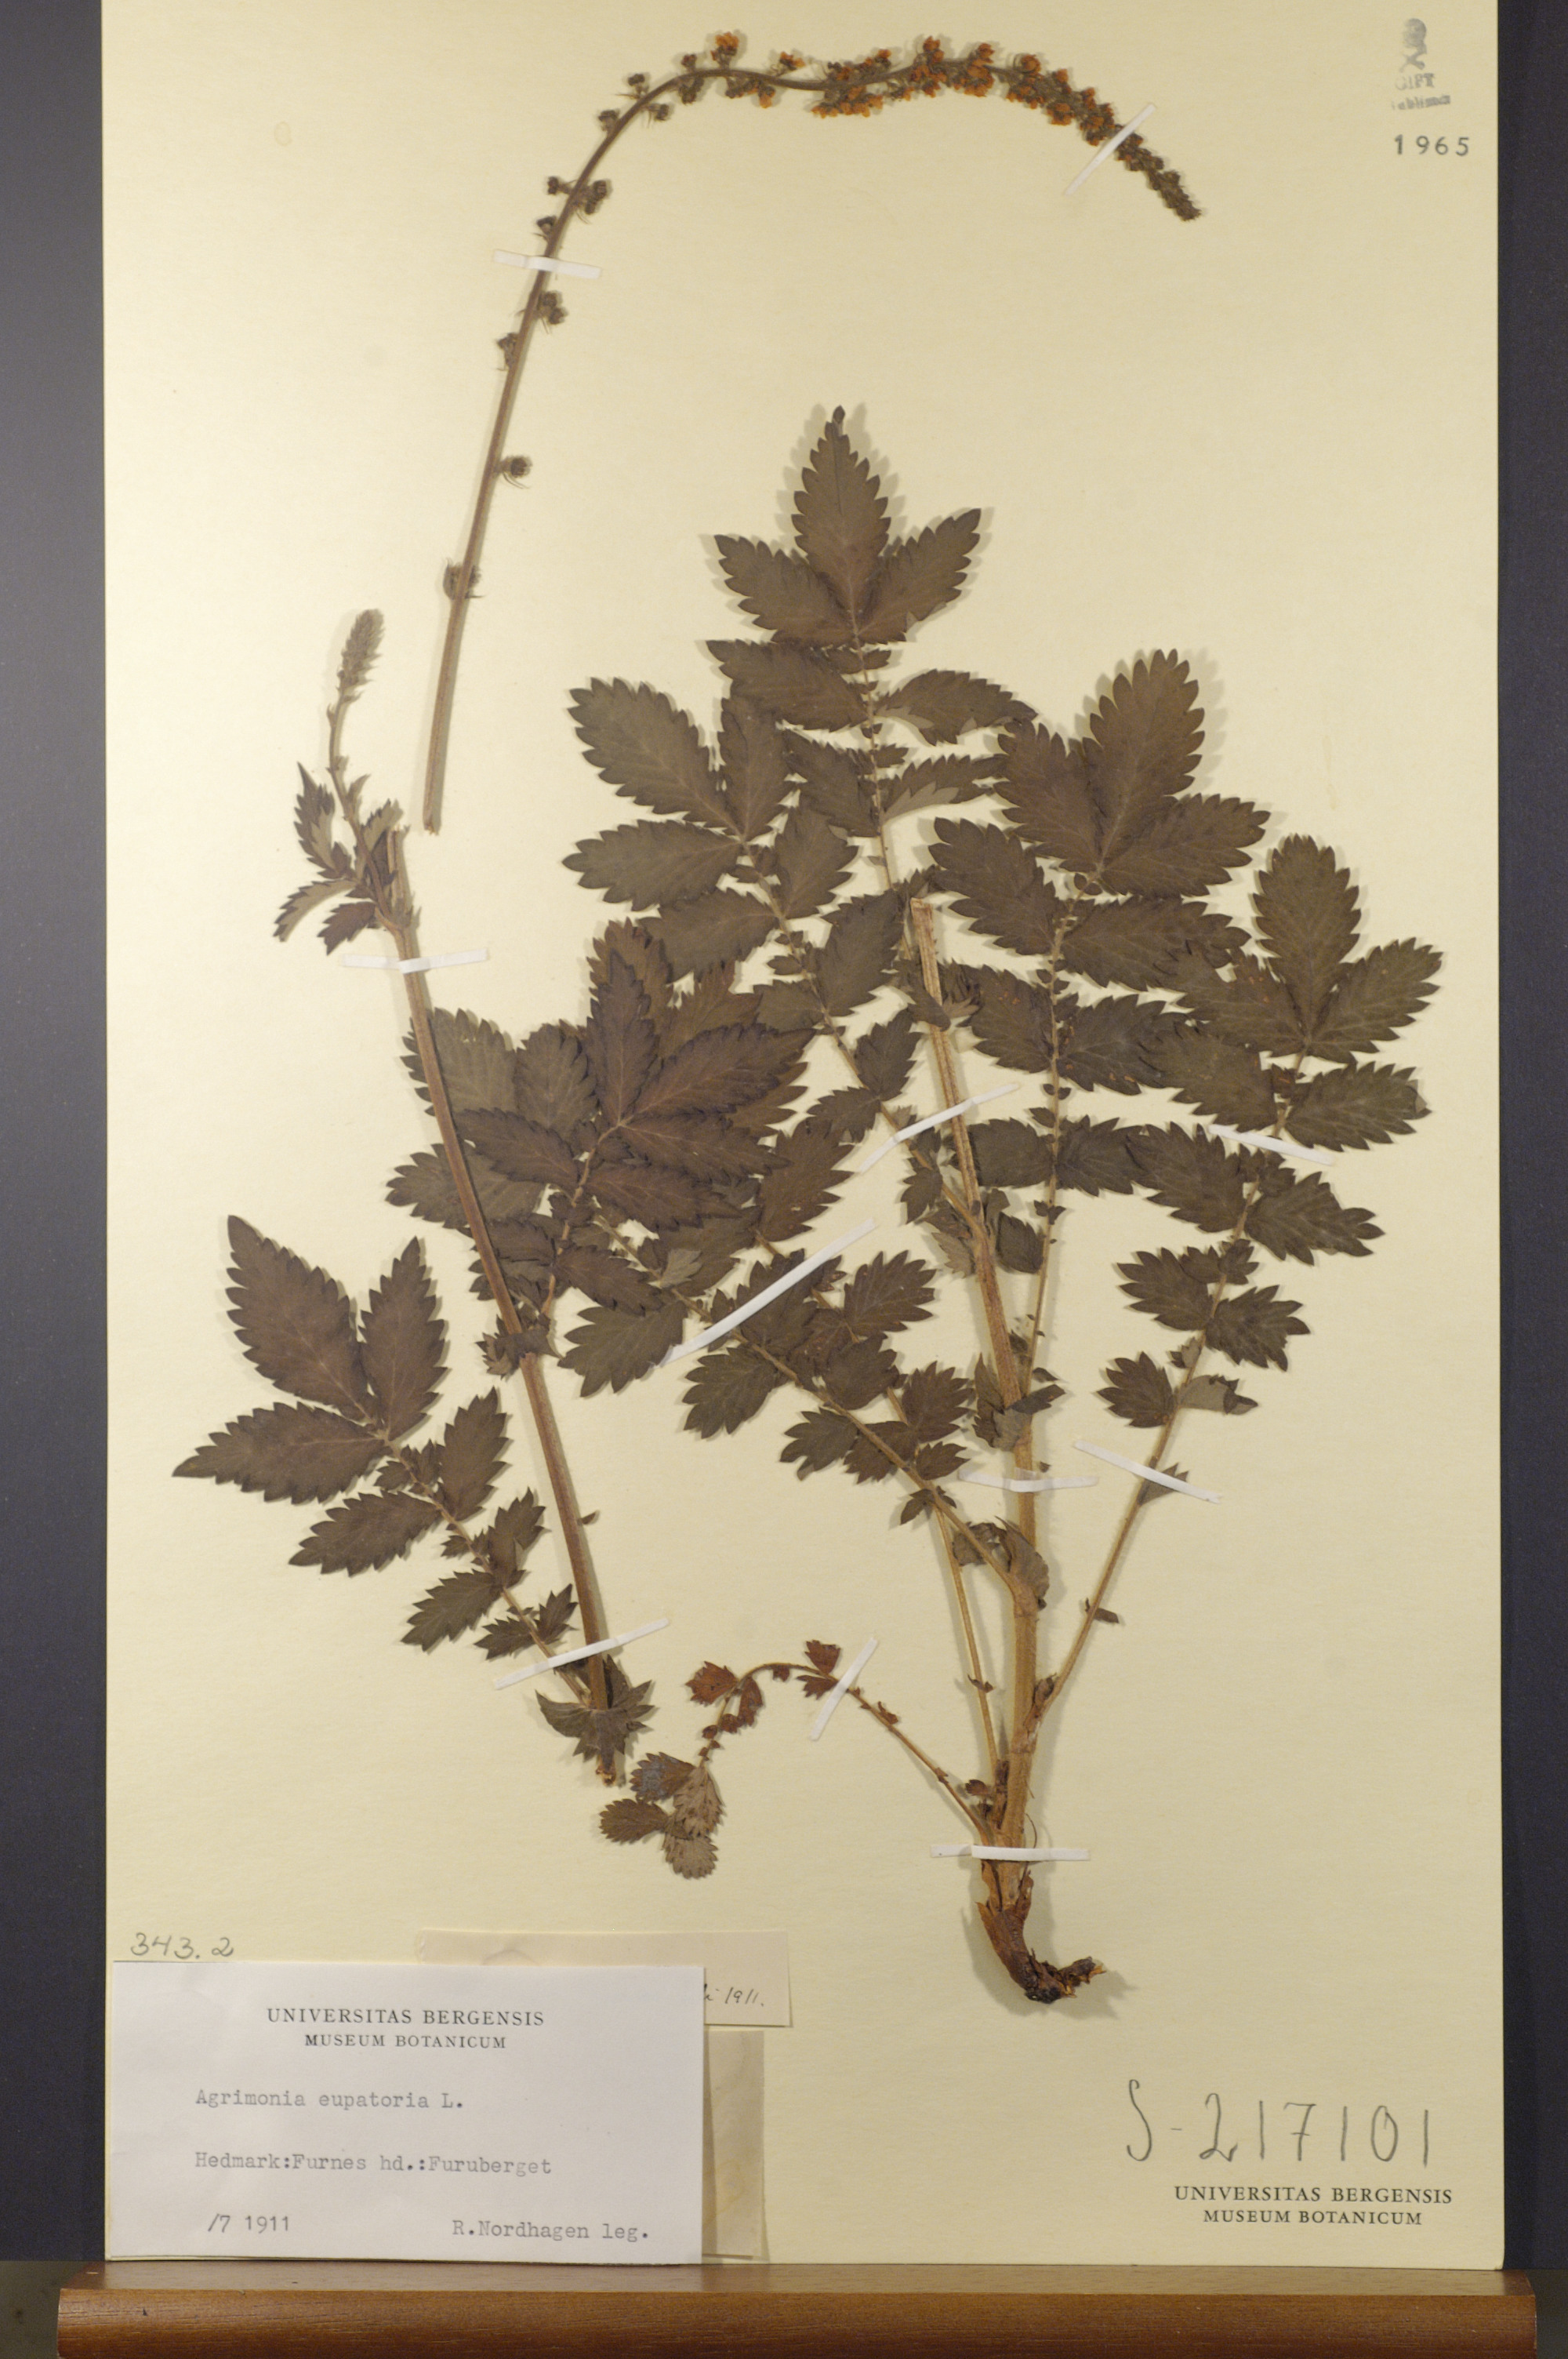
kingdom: Plantae
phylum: Tracheophyta
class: Magnoliopsida
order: Rosales
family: Rosaceae
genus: Agrimonia
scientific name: Agrimonia eupatoria
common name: Agrimony
